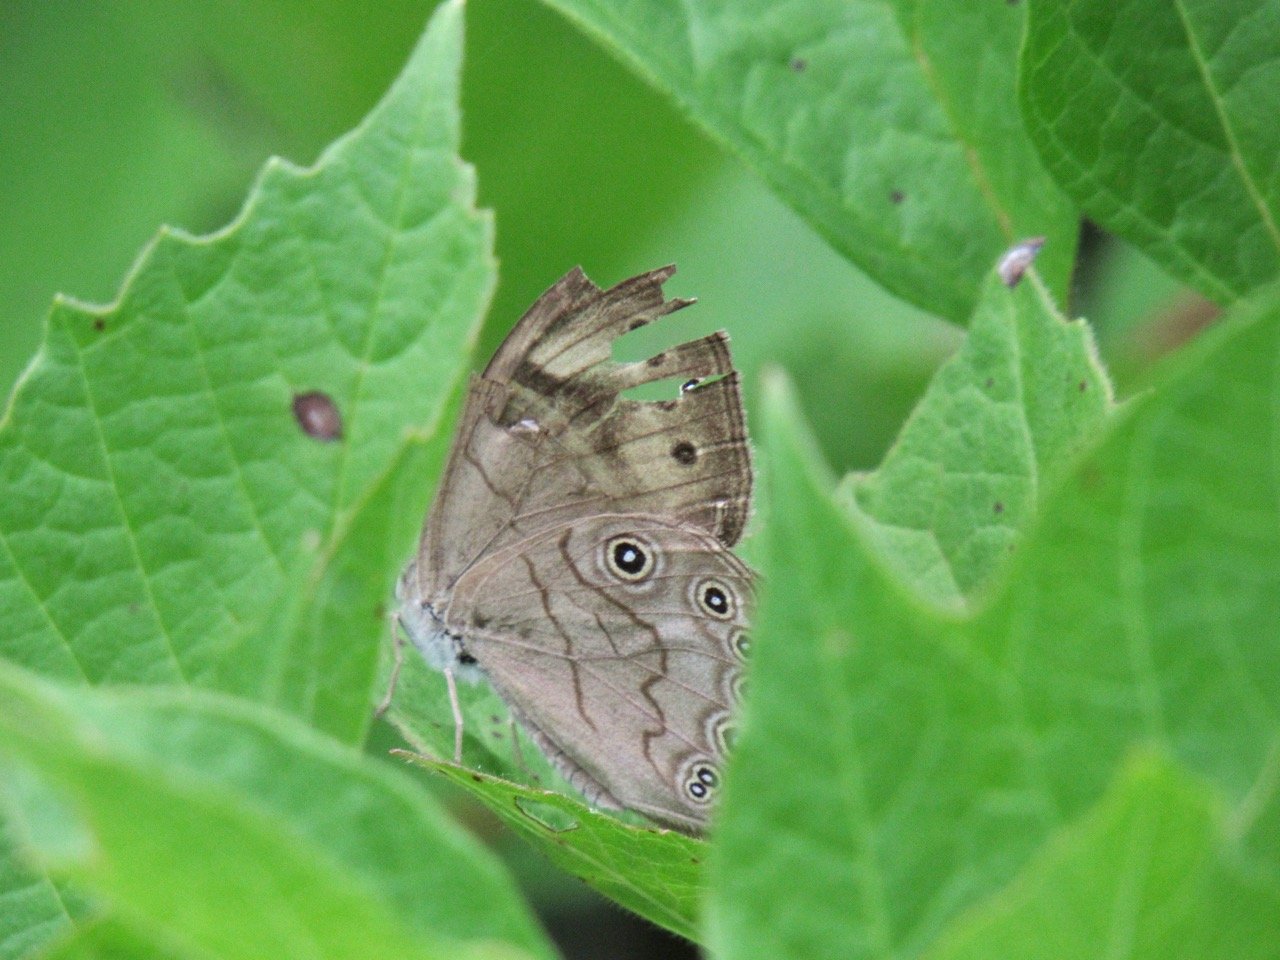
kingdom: Animalia
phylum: Arthropoda
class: Insecta
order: Lepidoptera
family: Nymphalidae
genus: Lethe
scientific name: Lethe eurydice
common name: Appalachian Eyed Brown
